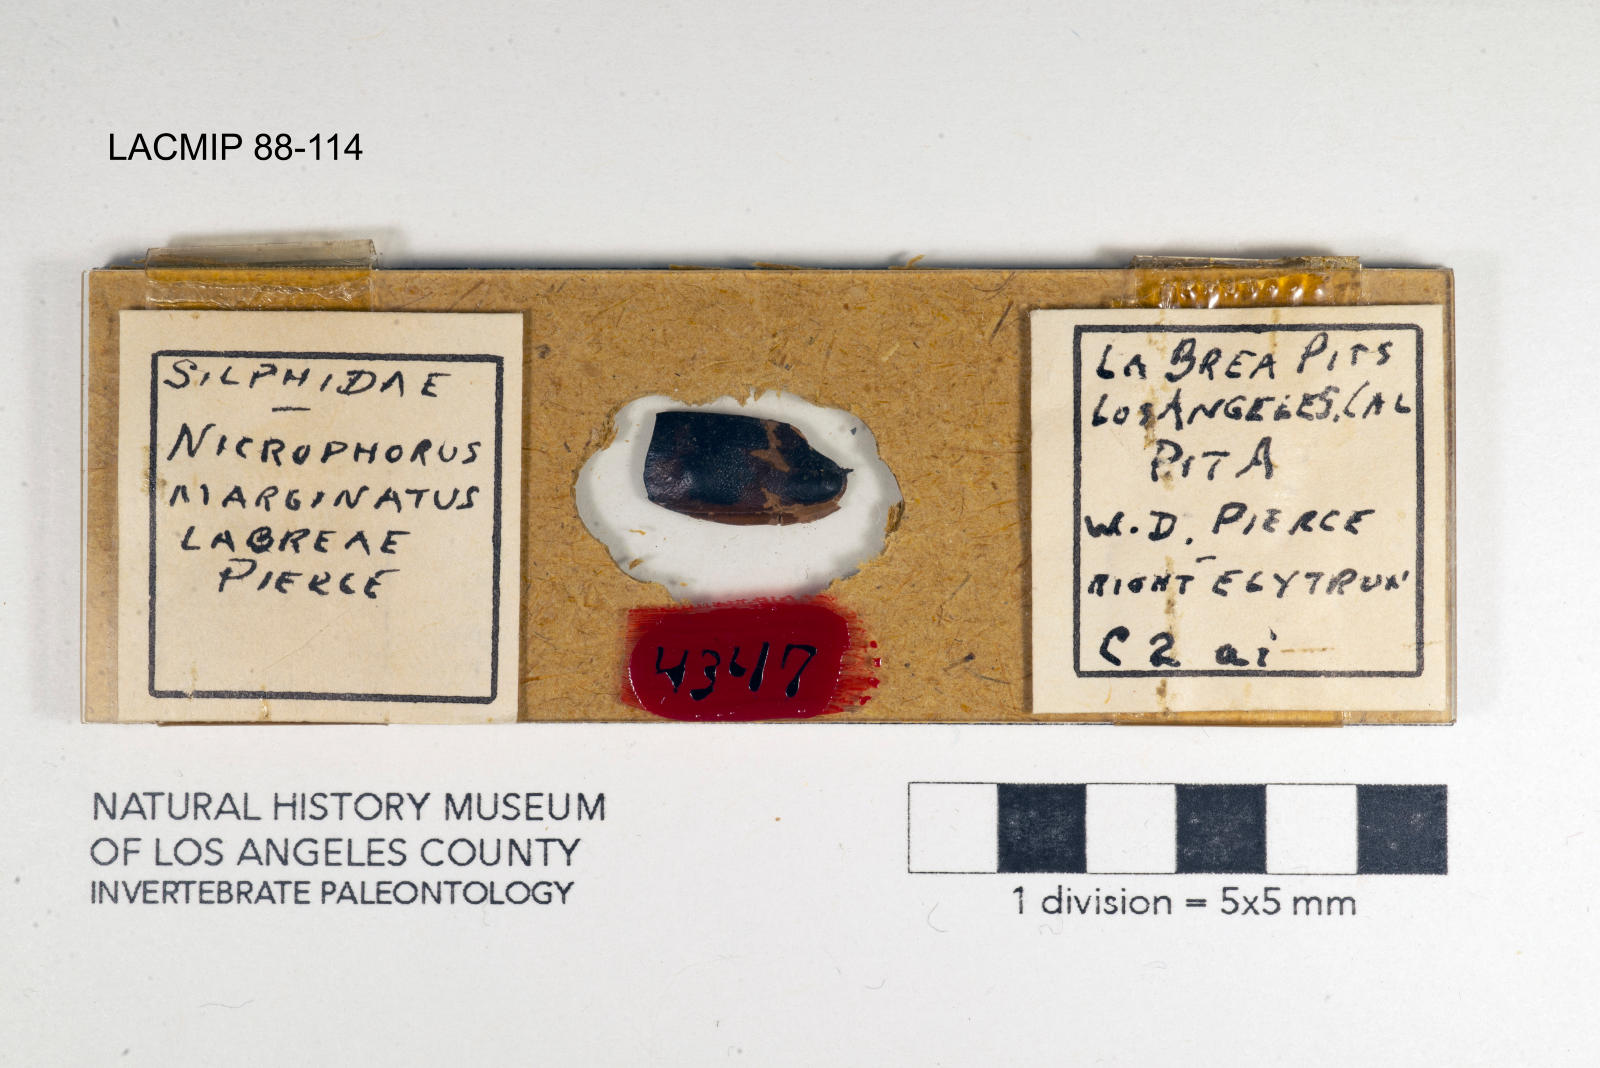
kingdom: Animalia
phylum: Arthropoda
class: Insecta
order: Coleoptera
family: Staphylinidae
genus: Nicrophorus
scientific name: Nicrophorus marginatus
